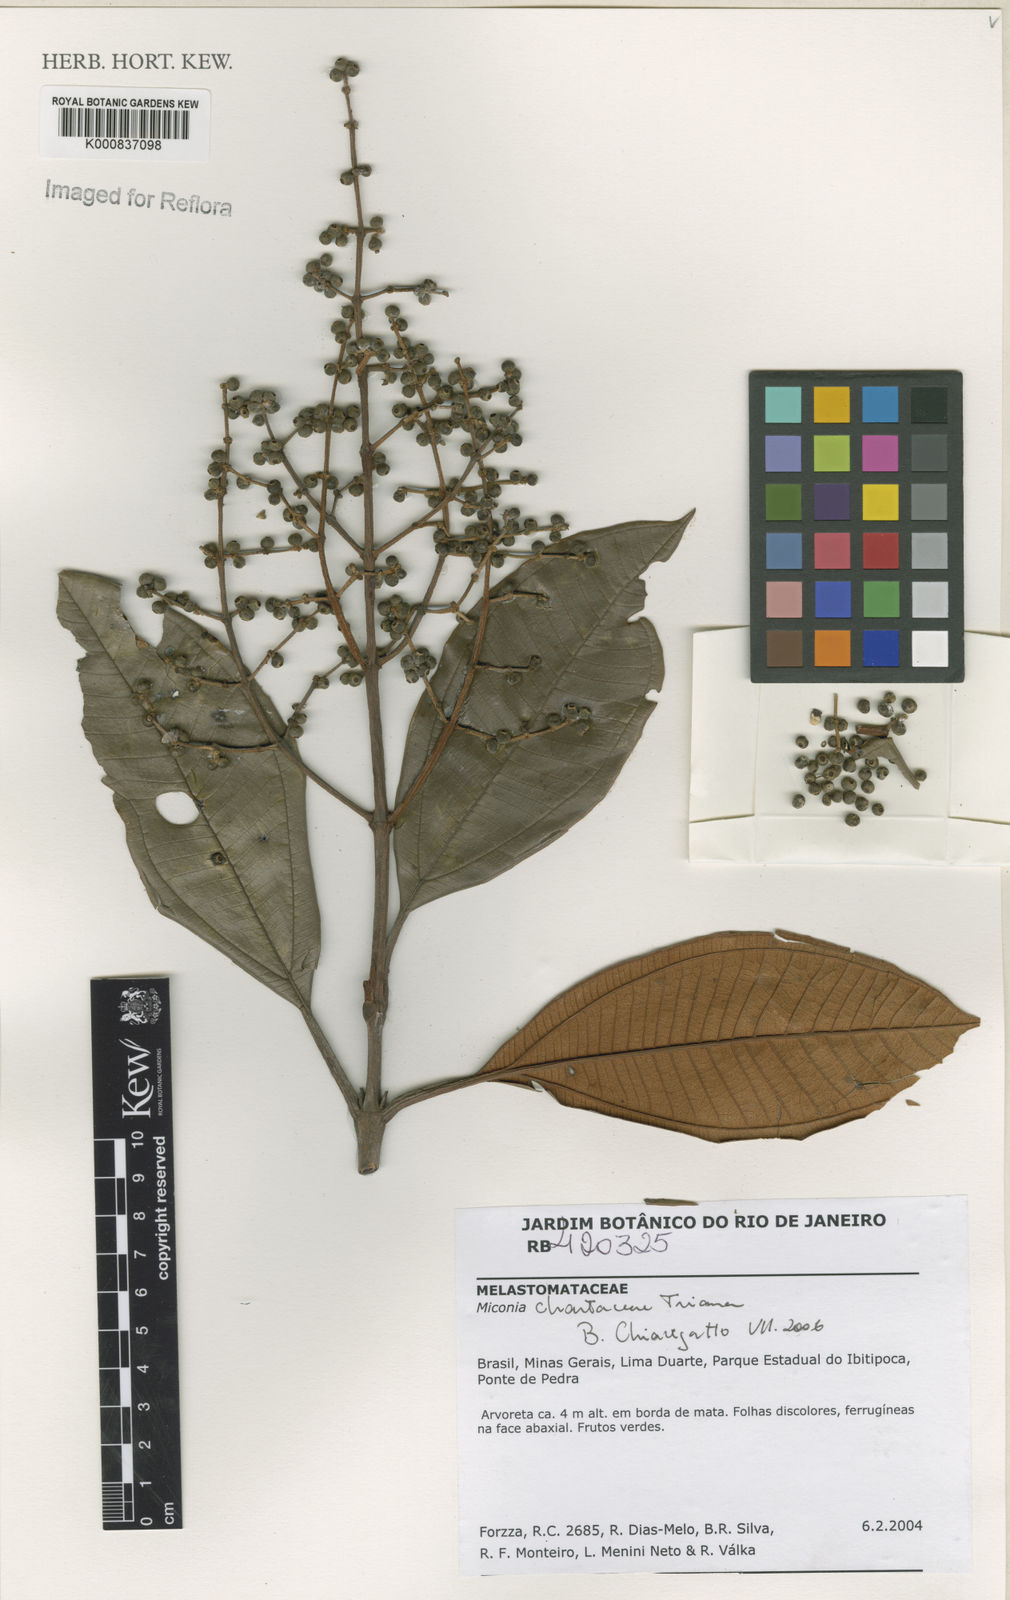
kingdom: Plantae
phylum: Tracheophyta
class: Magnoliopsida
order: Myrtales
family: Melastomataceae
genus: Miconia
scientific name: Miconia chartacea
